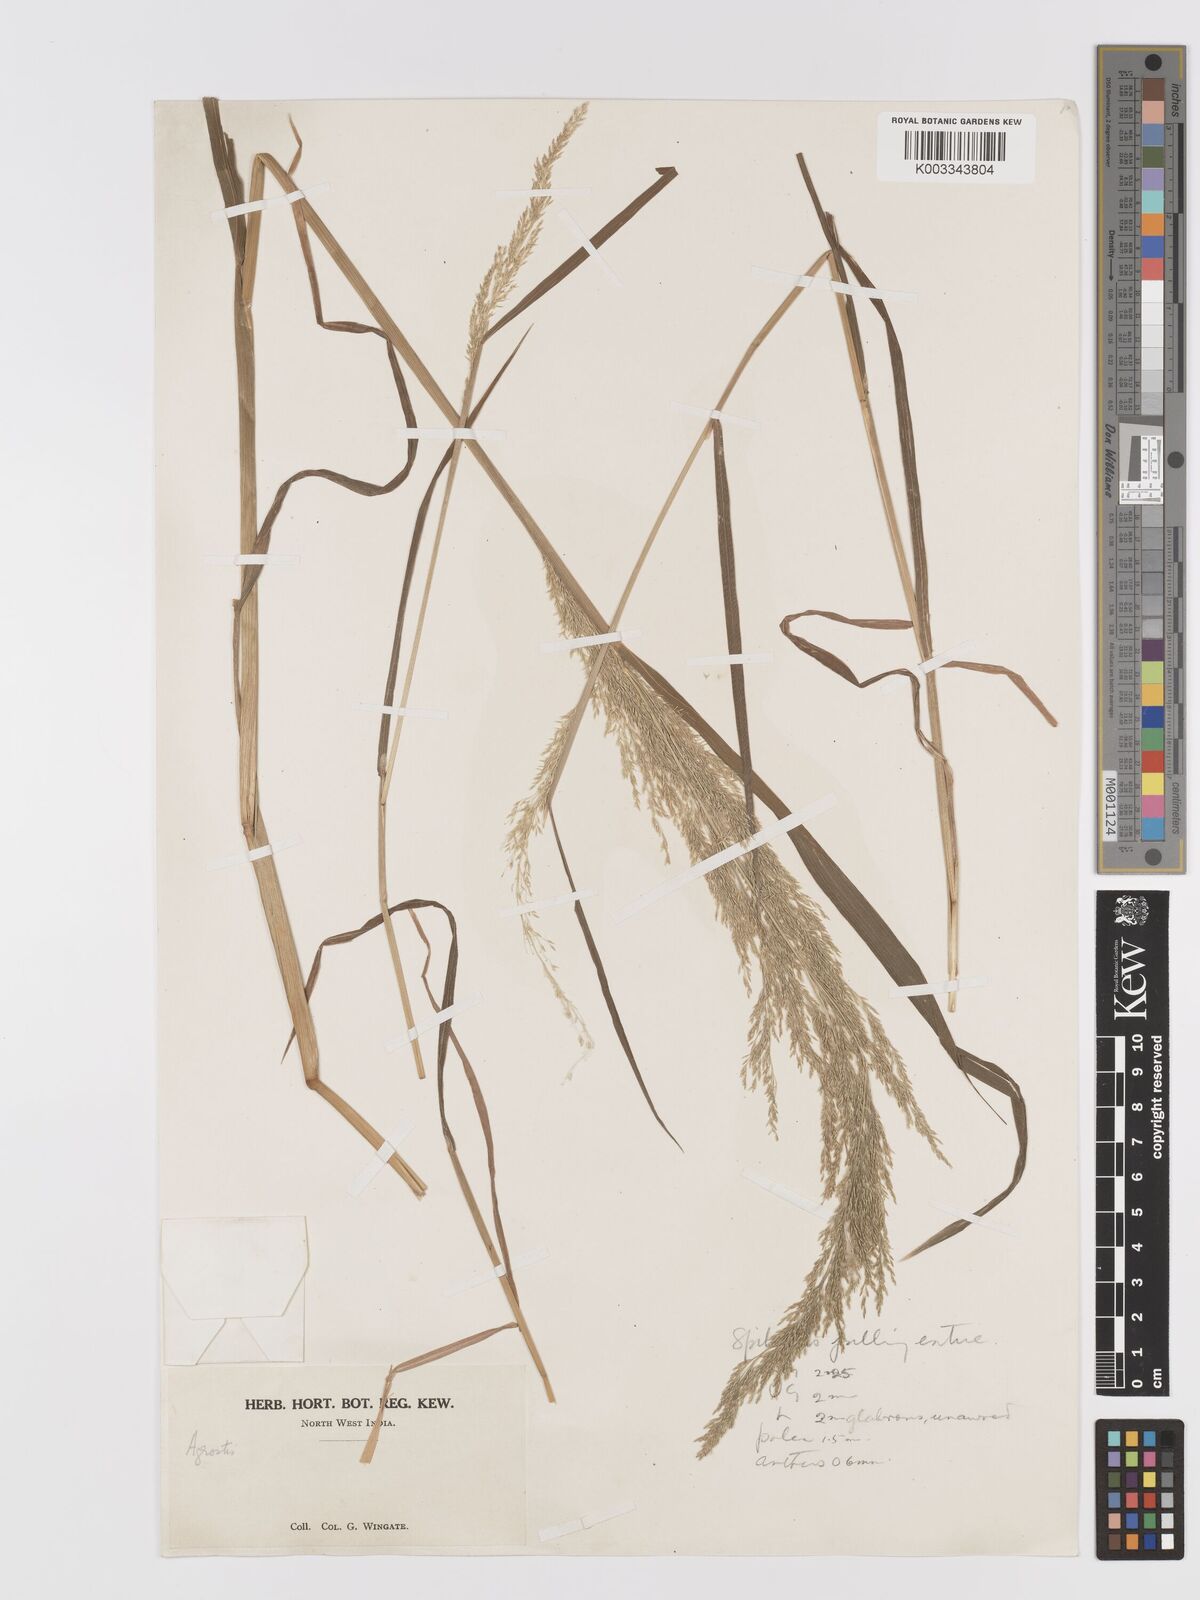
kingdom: Plantae
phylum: Tracheophyta
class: Liliopsida
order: Poales
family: Poaceae
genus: Agrostis
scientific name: Agrostis
